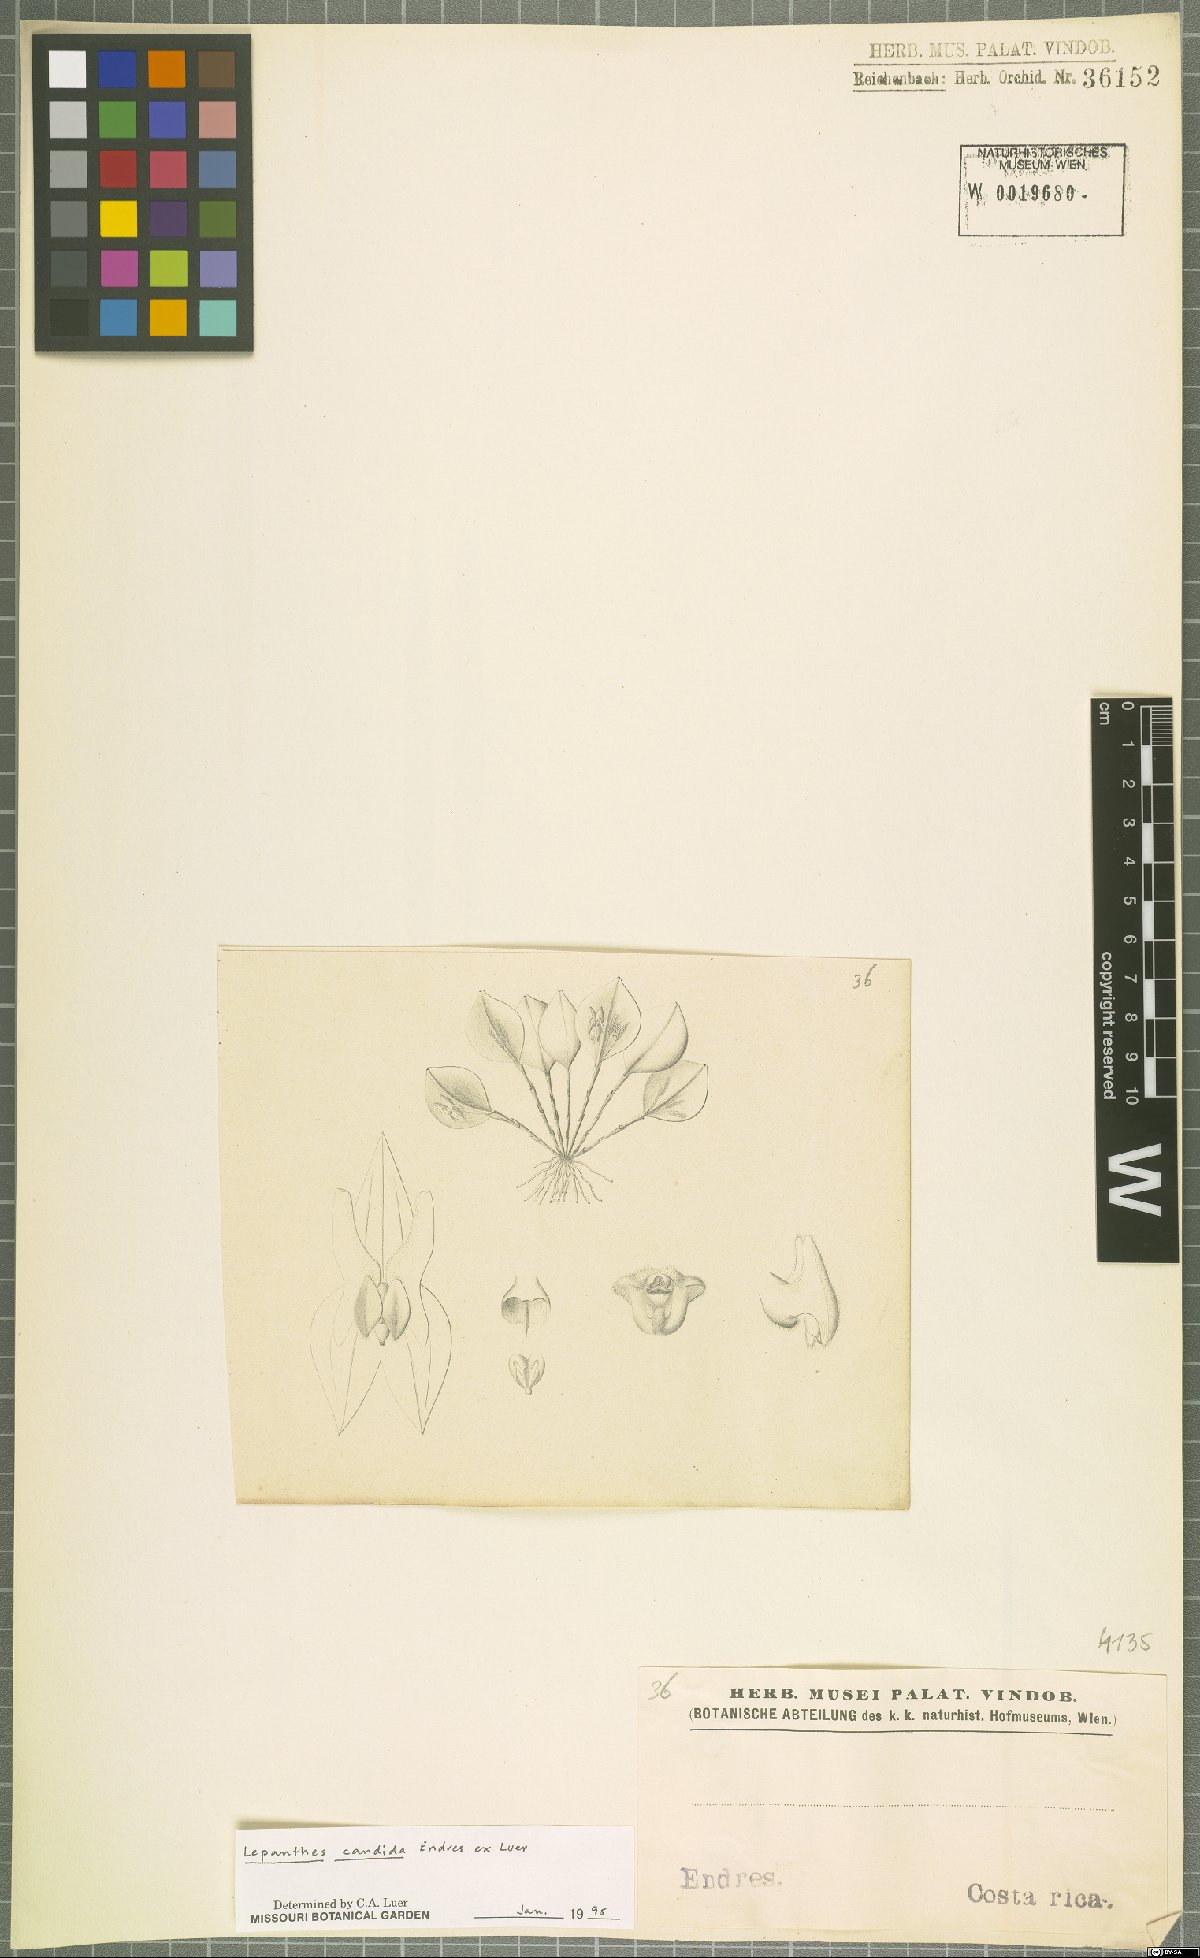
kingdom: Plantae
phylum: Tracheophyta
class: Liliopsida
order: Asparagales
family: Orchidaceae
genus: Lepanthes
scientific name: Lepanthes candida
